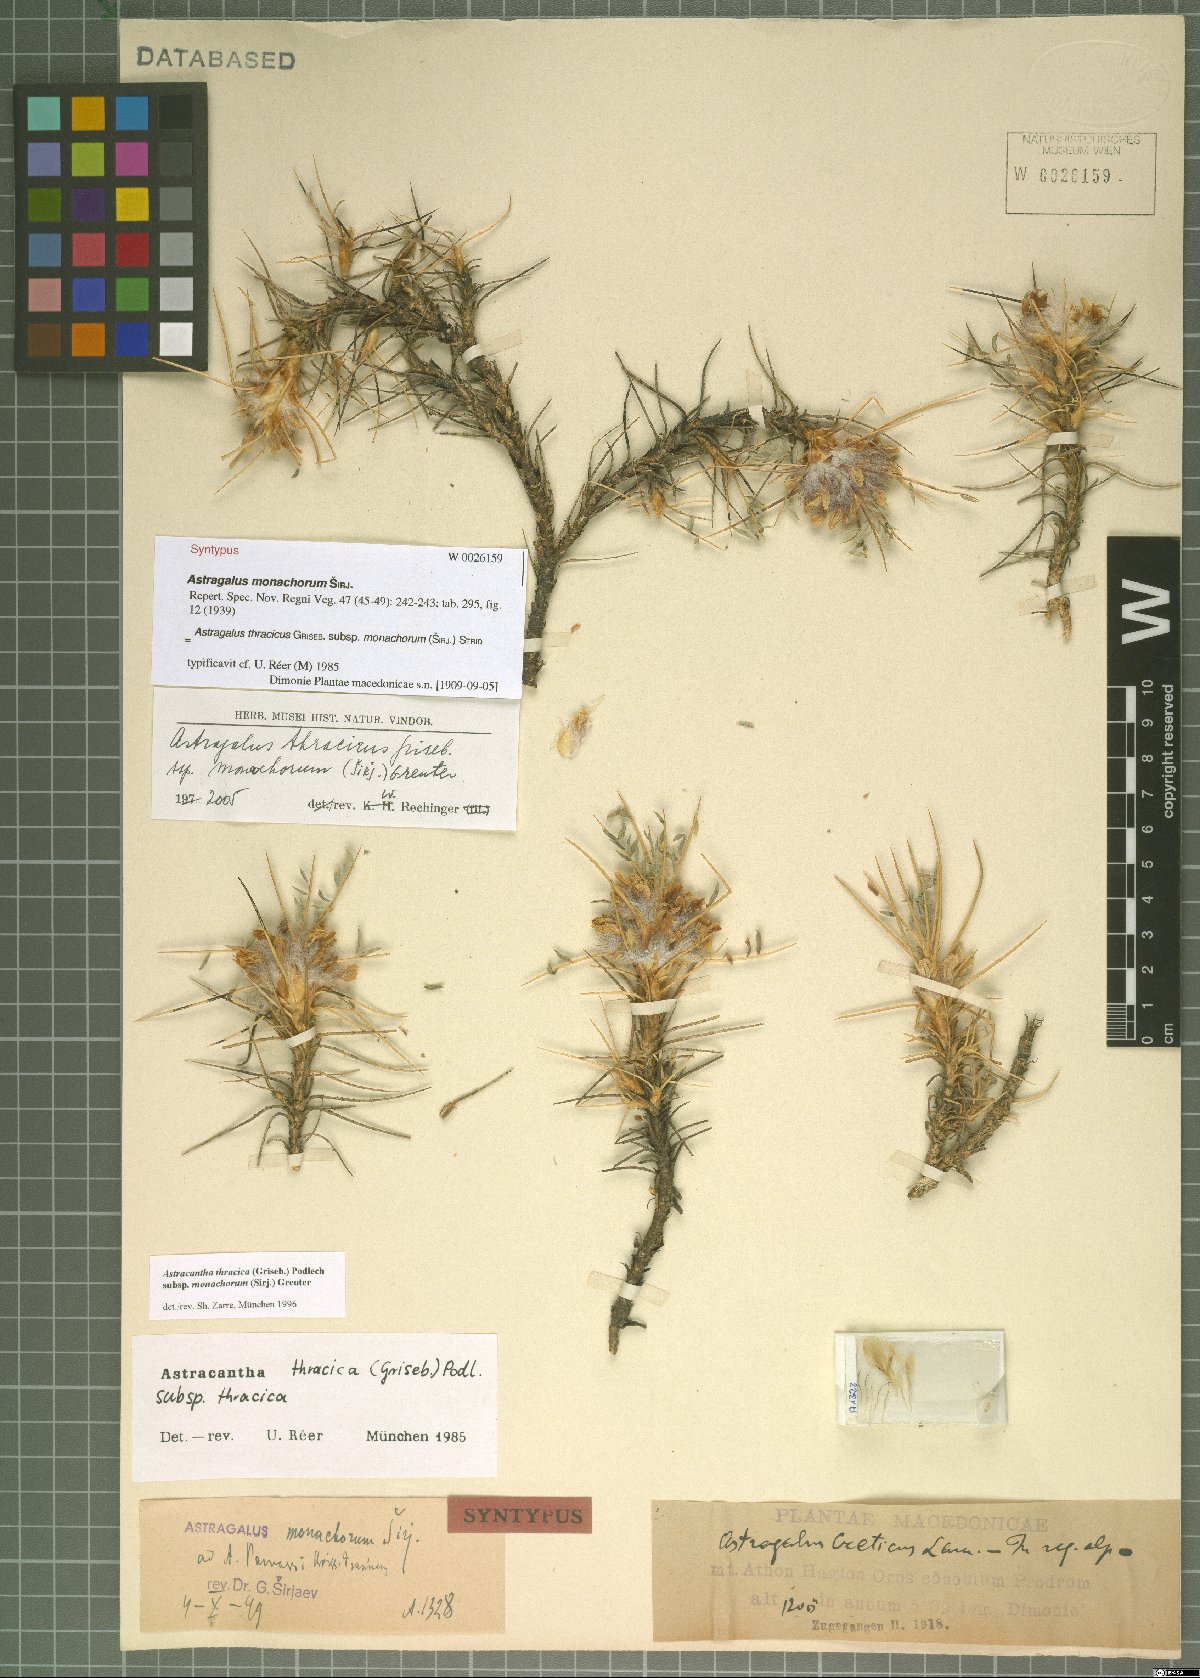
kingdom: Plantae
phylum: Tracheophyta
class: Magnoliopsida
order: Fabales
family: Fabaceae
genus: Astragalus
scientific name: Astragalus thracicus
